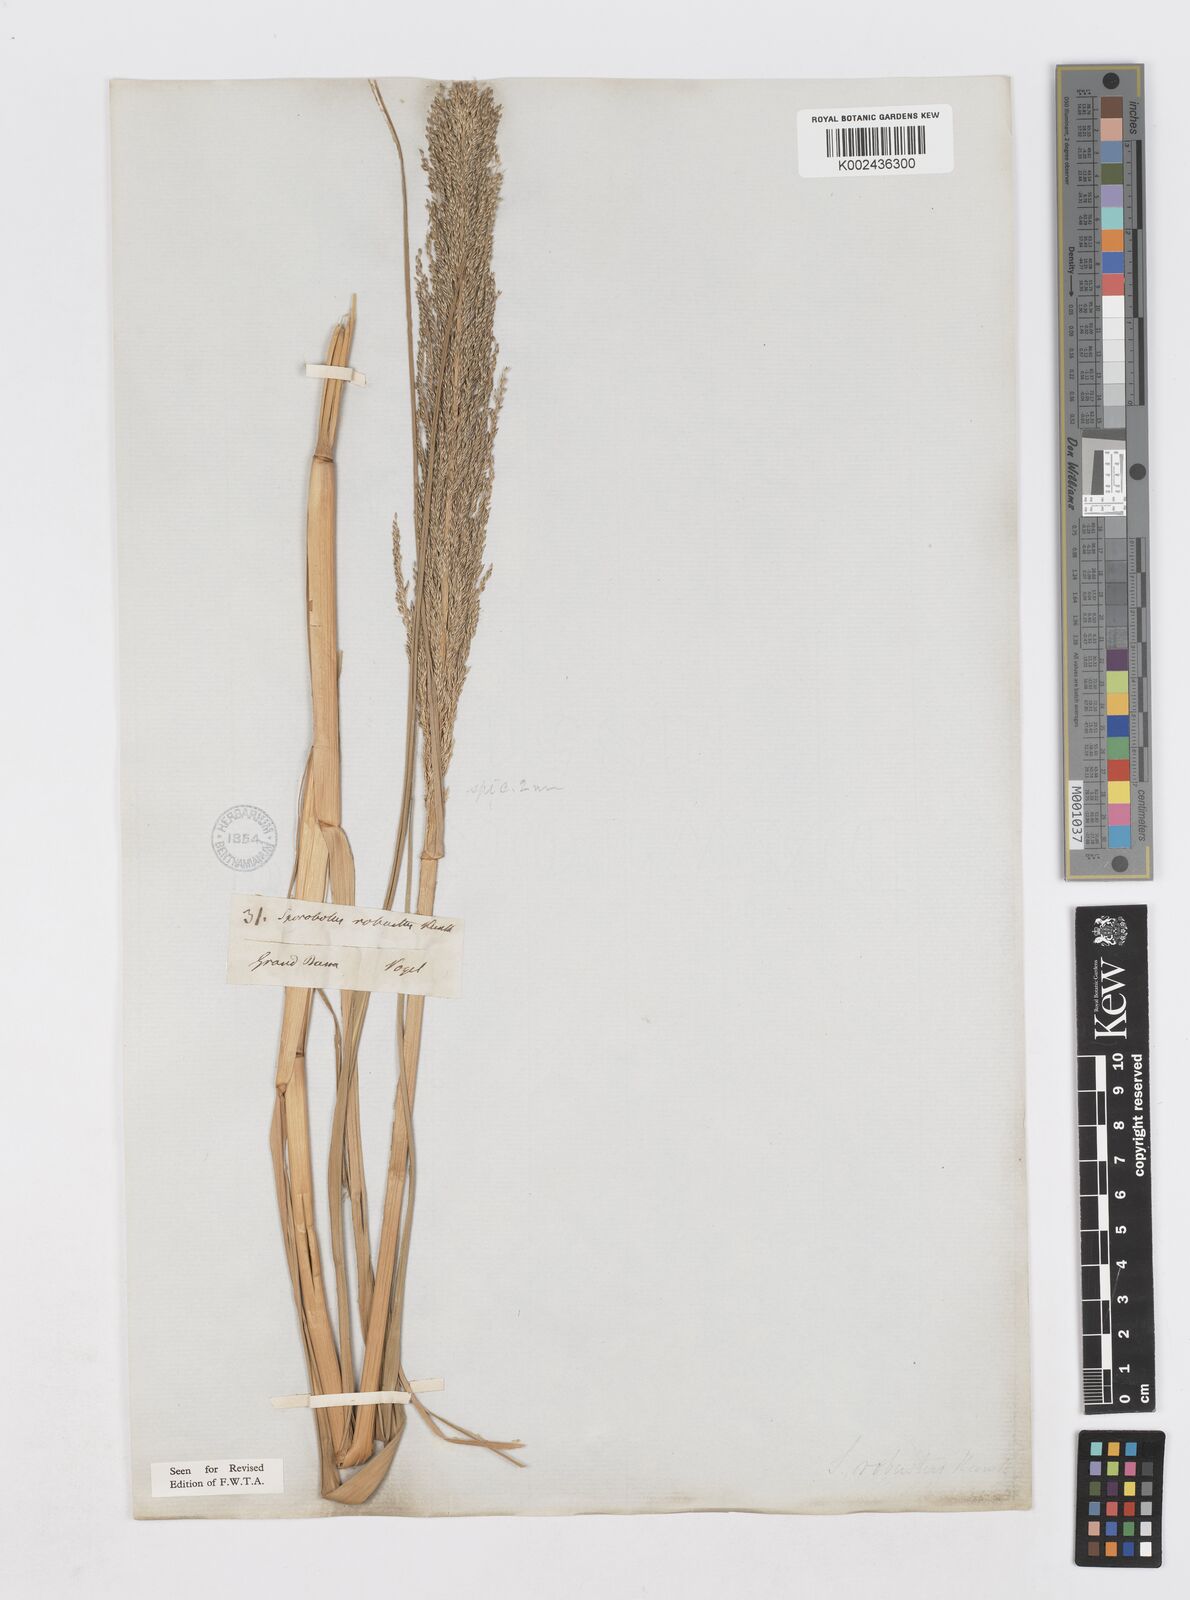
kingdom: Plantae
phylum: Tracheophyta
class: Liliopsida
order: Poales
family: Poaceae
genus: Sporobolus
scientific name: Sporobolus robustus
